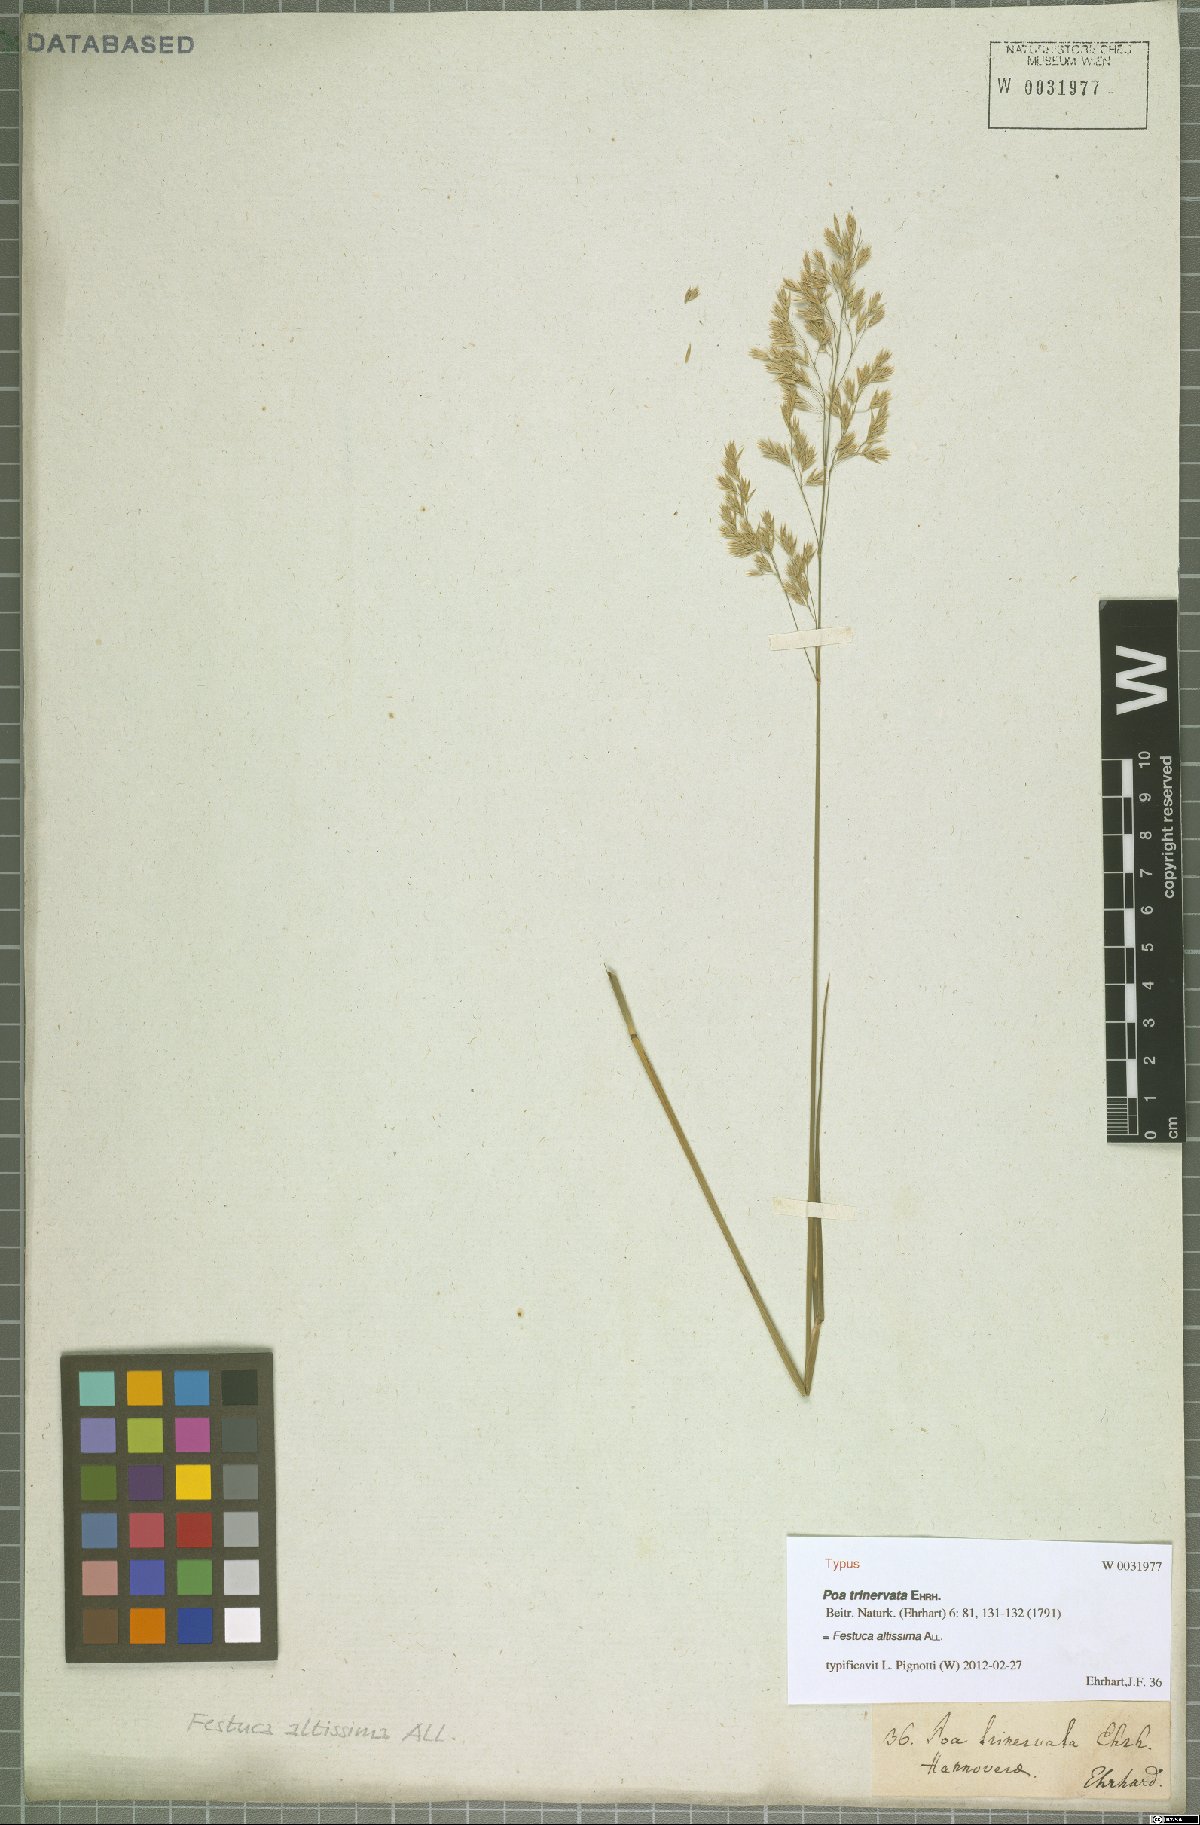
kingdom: Plantae
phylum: Tracheophyta
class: Liliopsida
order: Poales
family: Poaceae
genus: Festuca
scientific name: Festuca altissima
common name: Wood fescue
